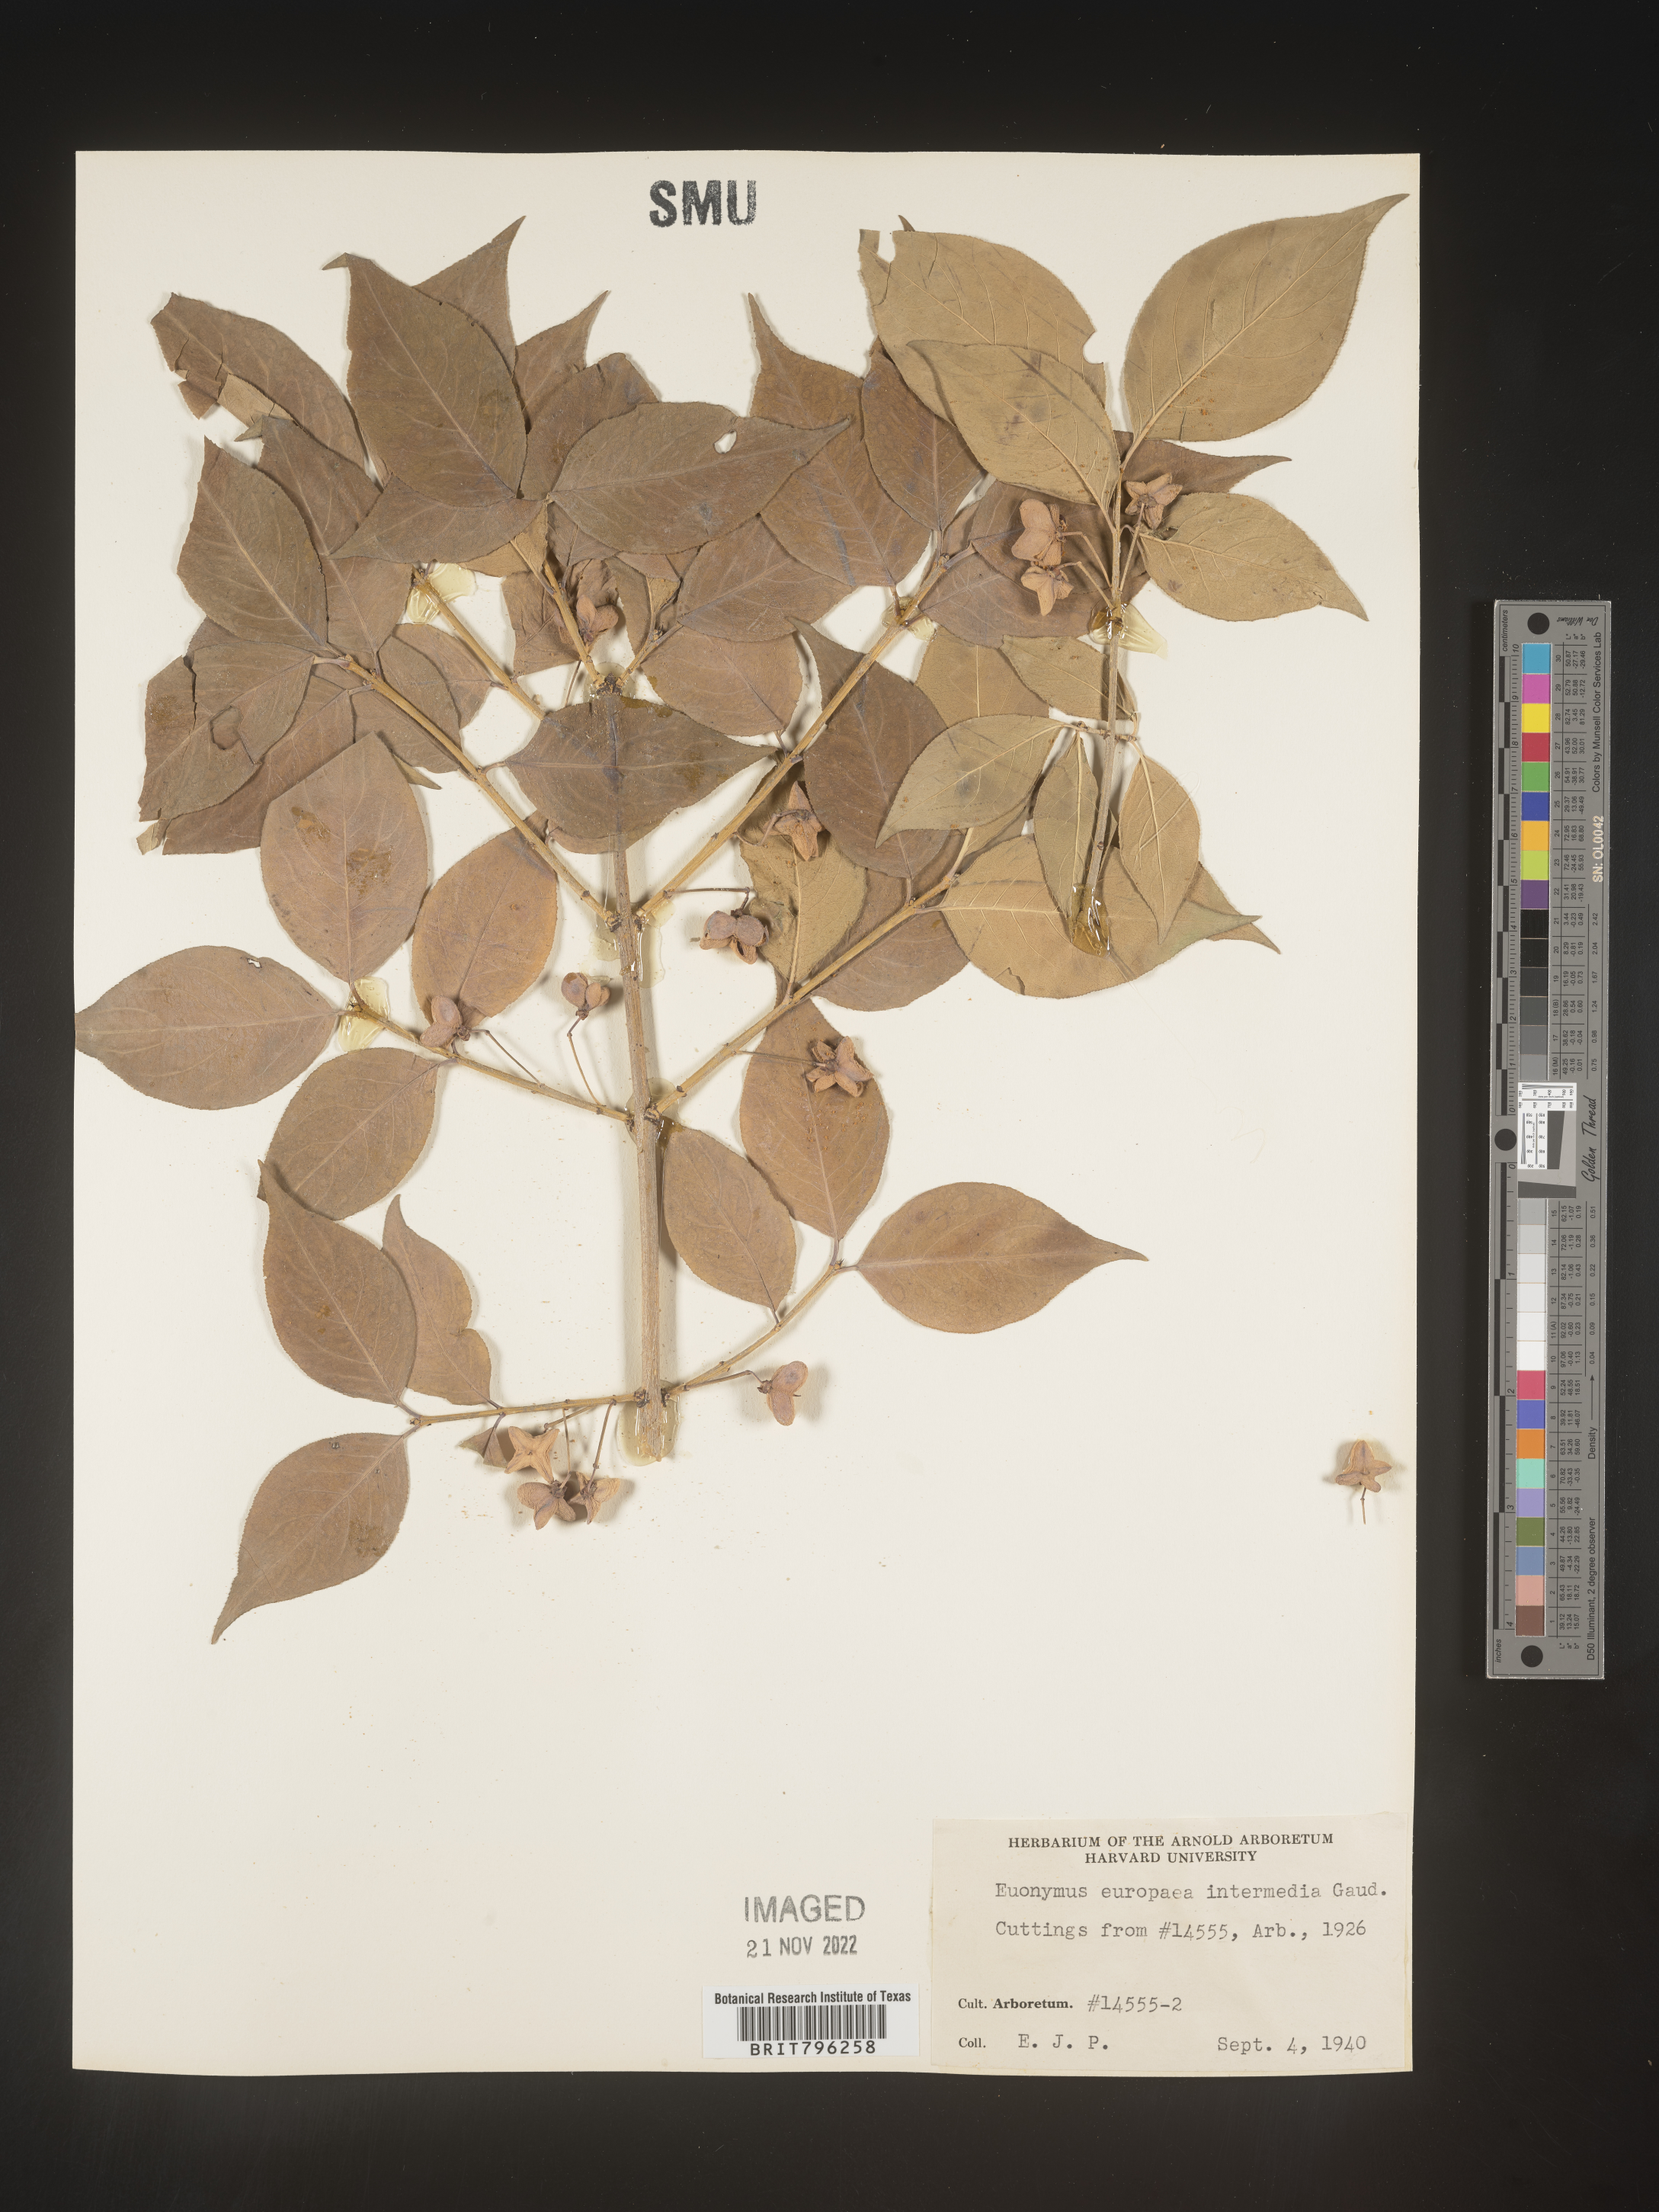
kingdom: Plantae
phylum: Tracheophyta
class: Magnoliopsida
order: Celastrales
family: Celastraceae
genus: Euonymus
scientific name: Euonymus europaeus
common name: Spindle
